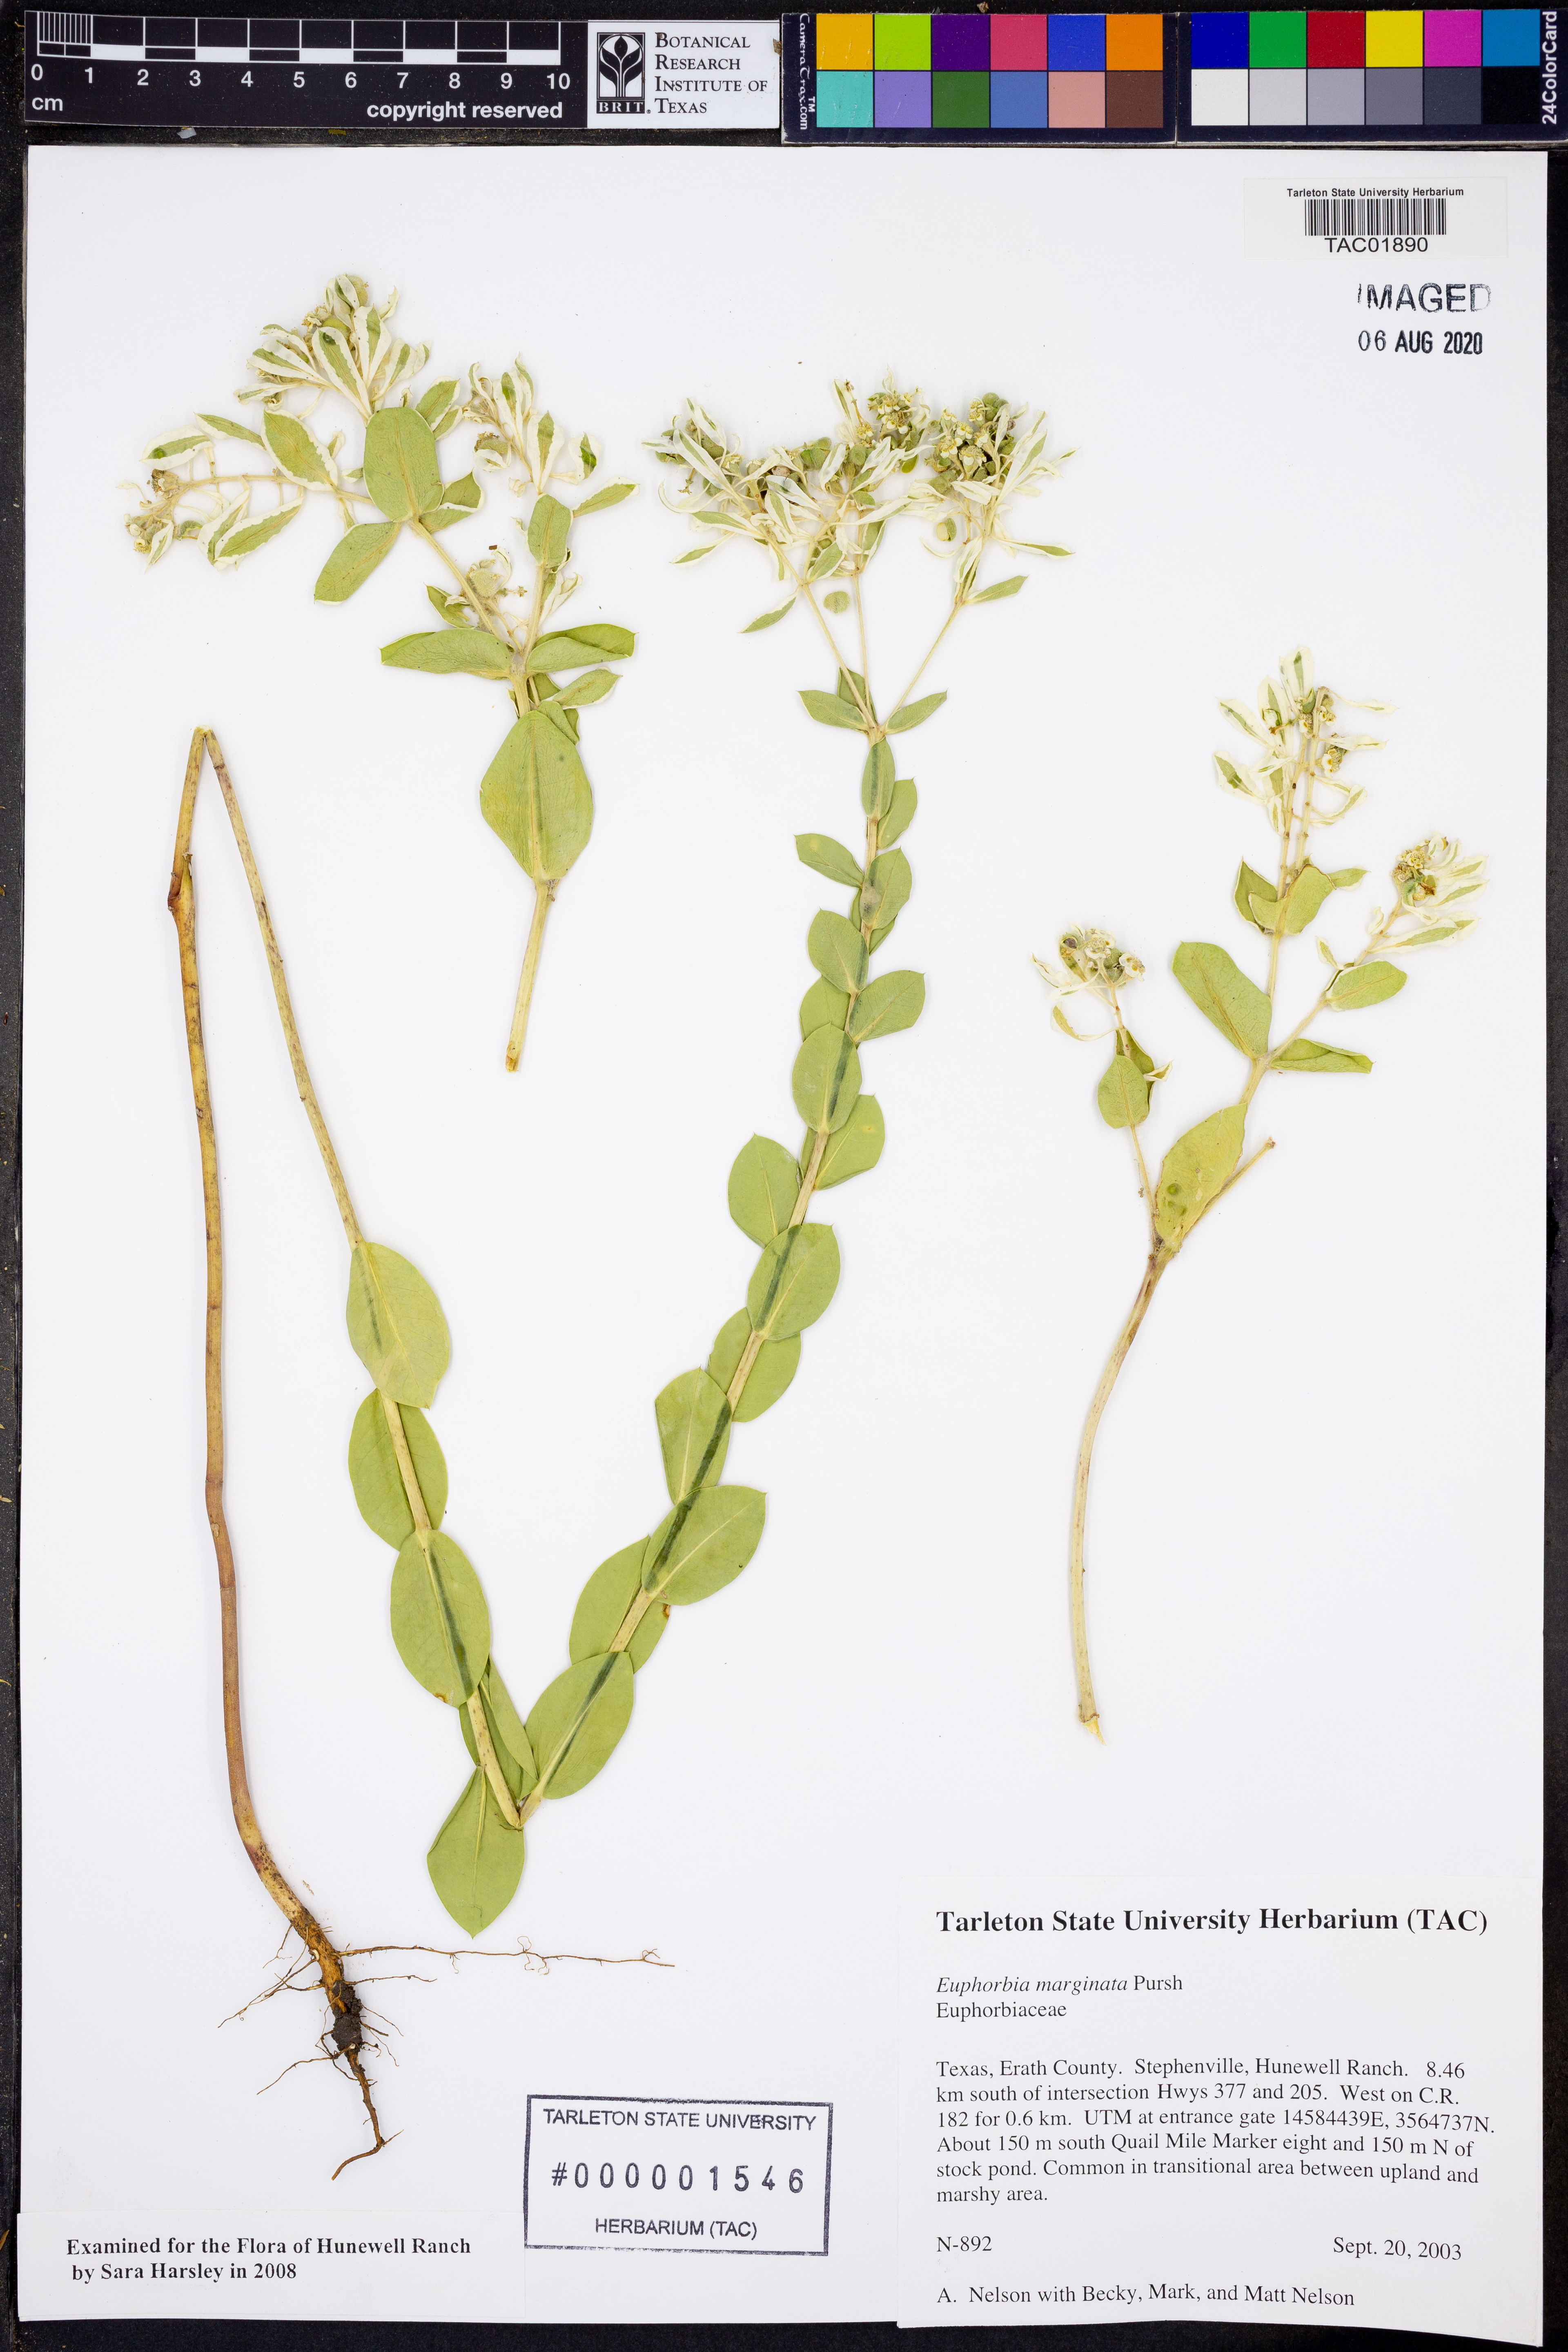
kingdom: Plantae
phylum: Tracheophyta
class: Magnoliopsida
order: Malpighiales
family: Euphorbiaceae
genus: Euphorbia
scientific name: Euphorbia marginata
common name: Ghostweed
